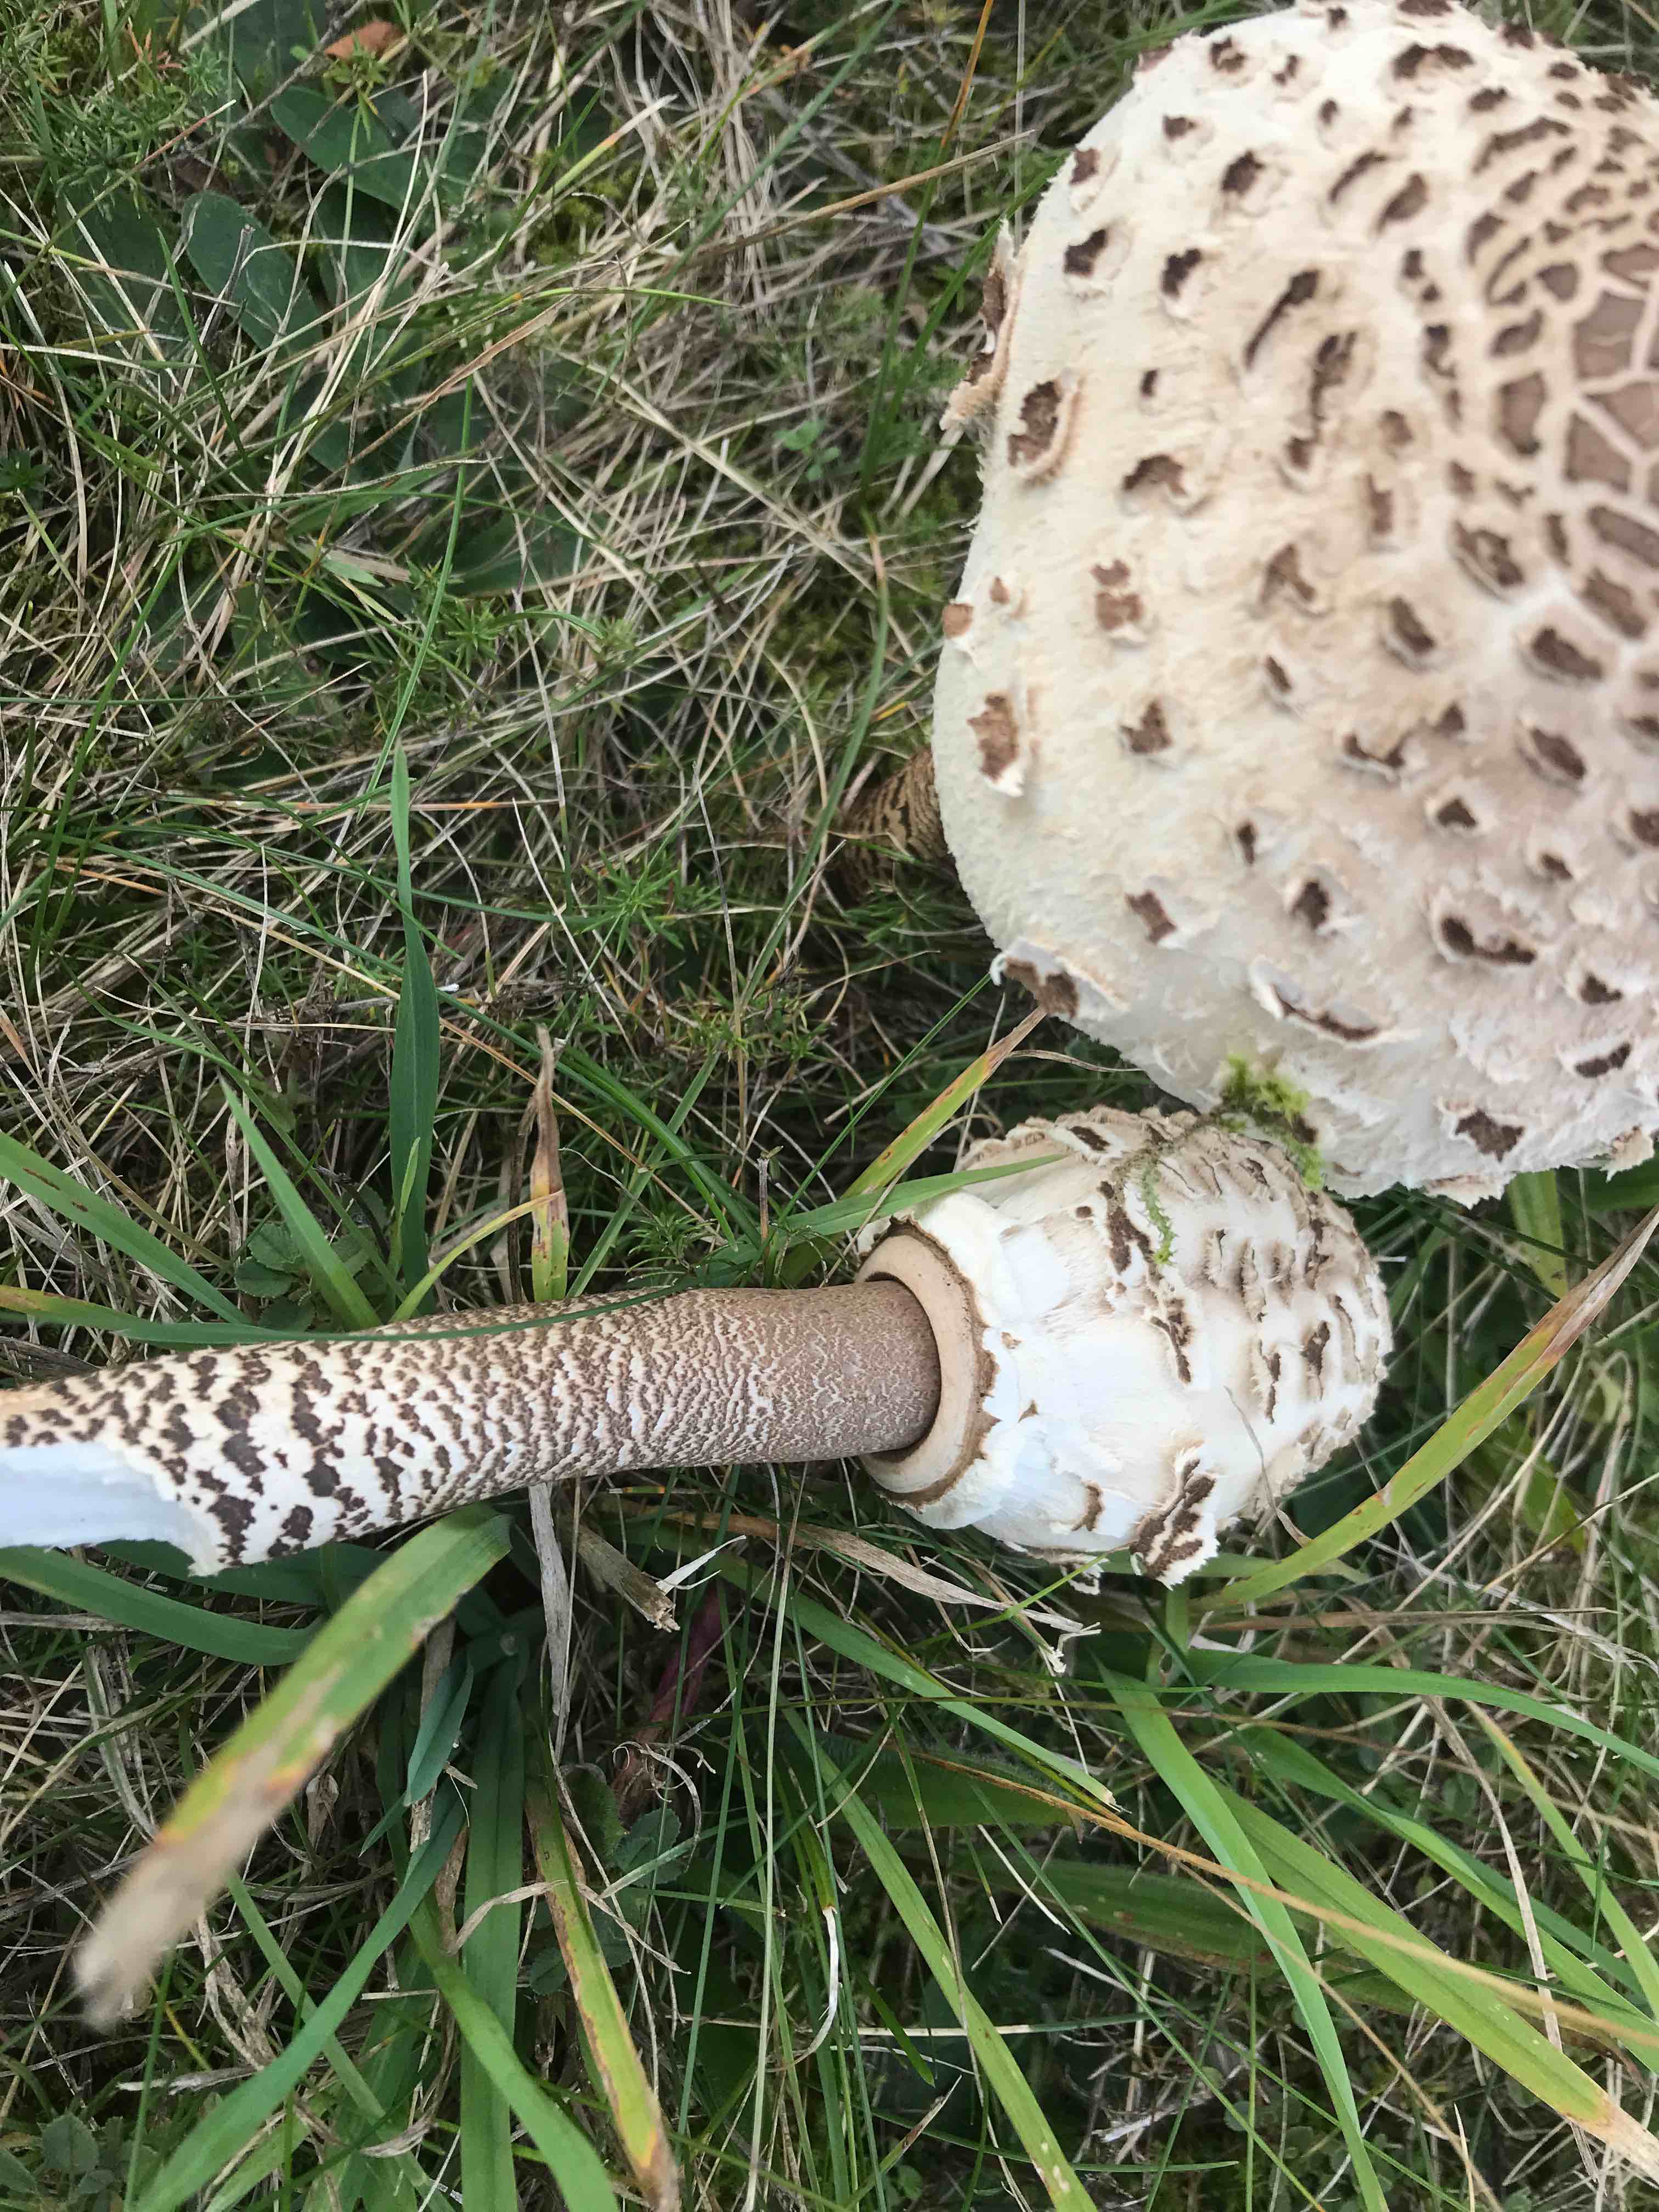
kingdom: Fungi
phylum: Basidiomycota
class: Agaricomycetes
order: Agaricales
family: Agaricaceae
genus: Macrolepiota
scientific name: Macrolepiota procera
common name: stor kæmpeparasolhat
